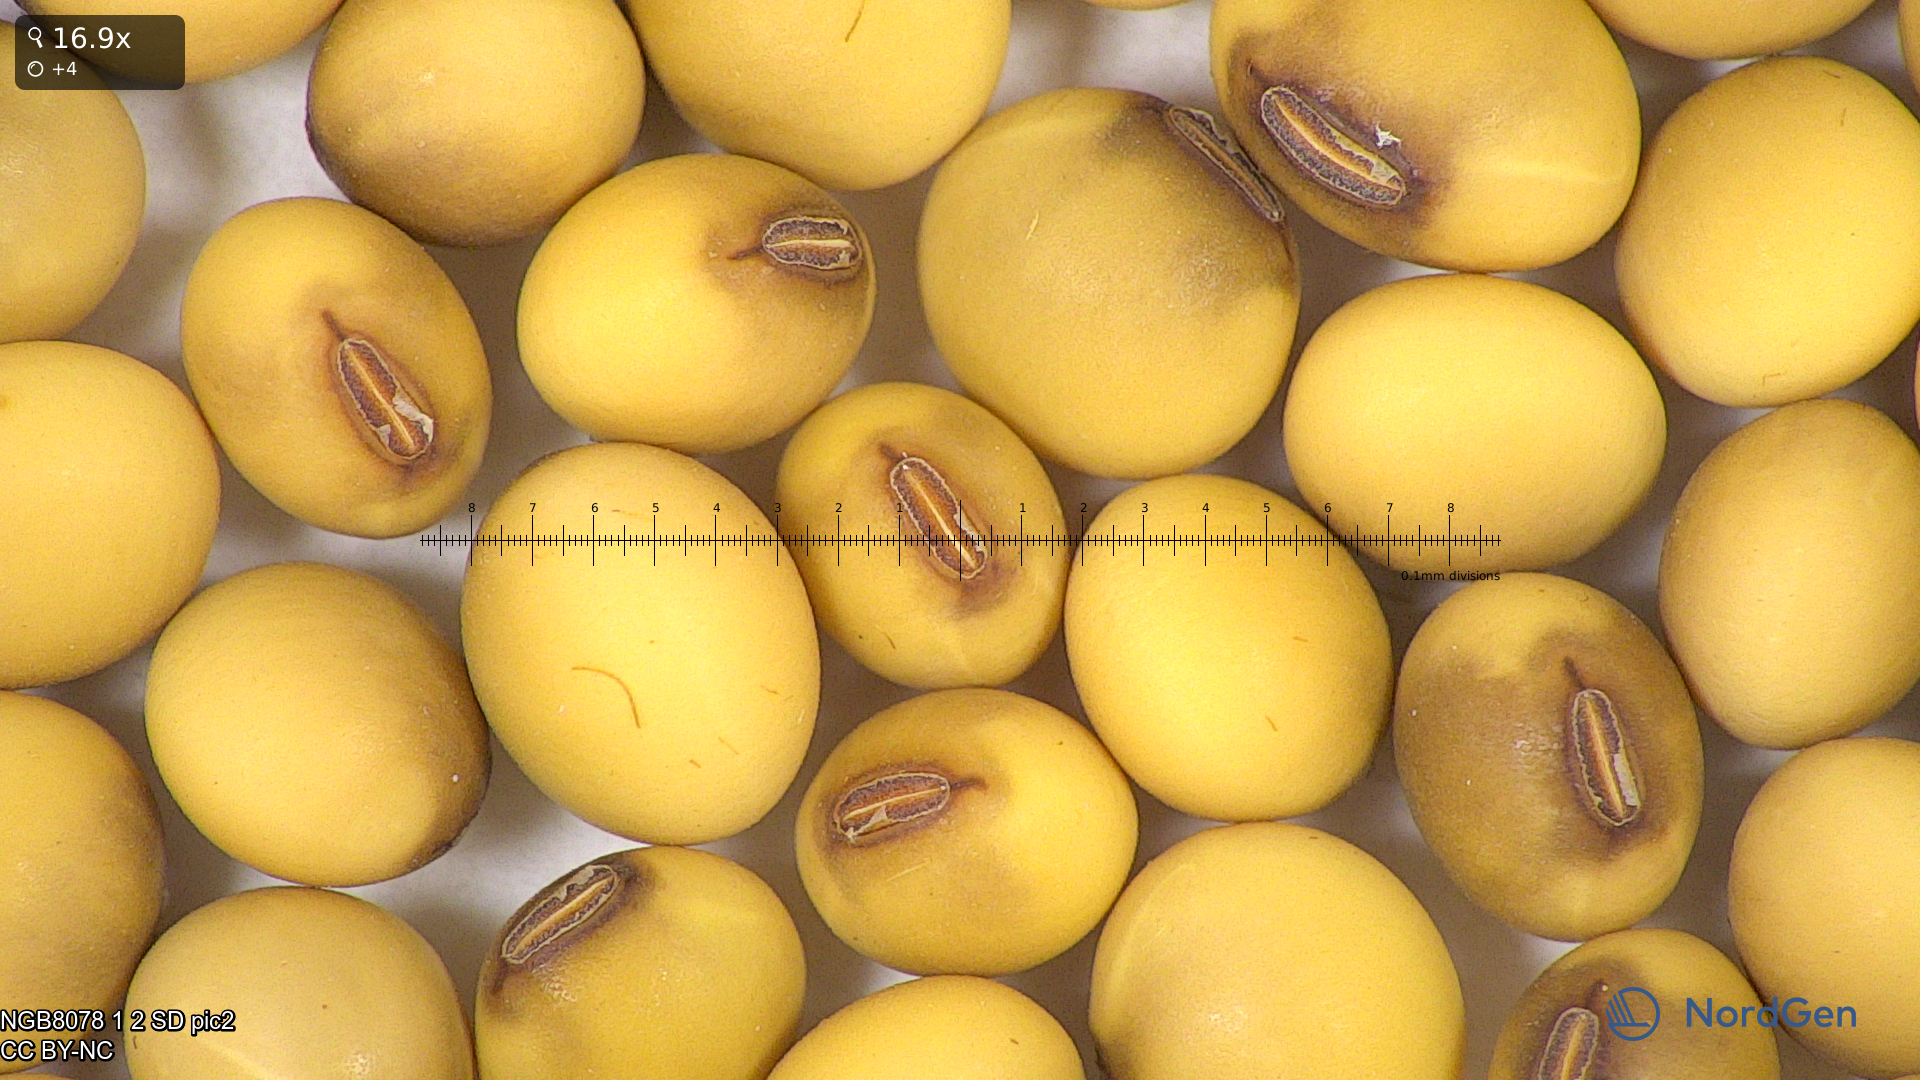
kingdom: Plantae
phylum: Tracheophyta
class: Magnoliopsida
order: Fabales
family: Fabaceae
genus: Glycine
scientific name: Glycine max
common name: Soya-bean
